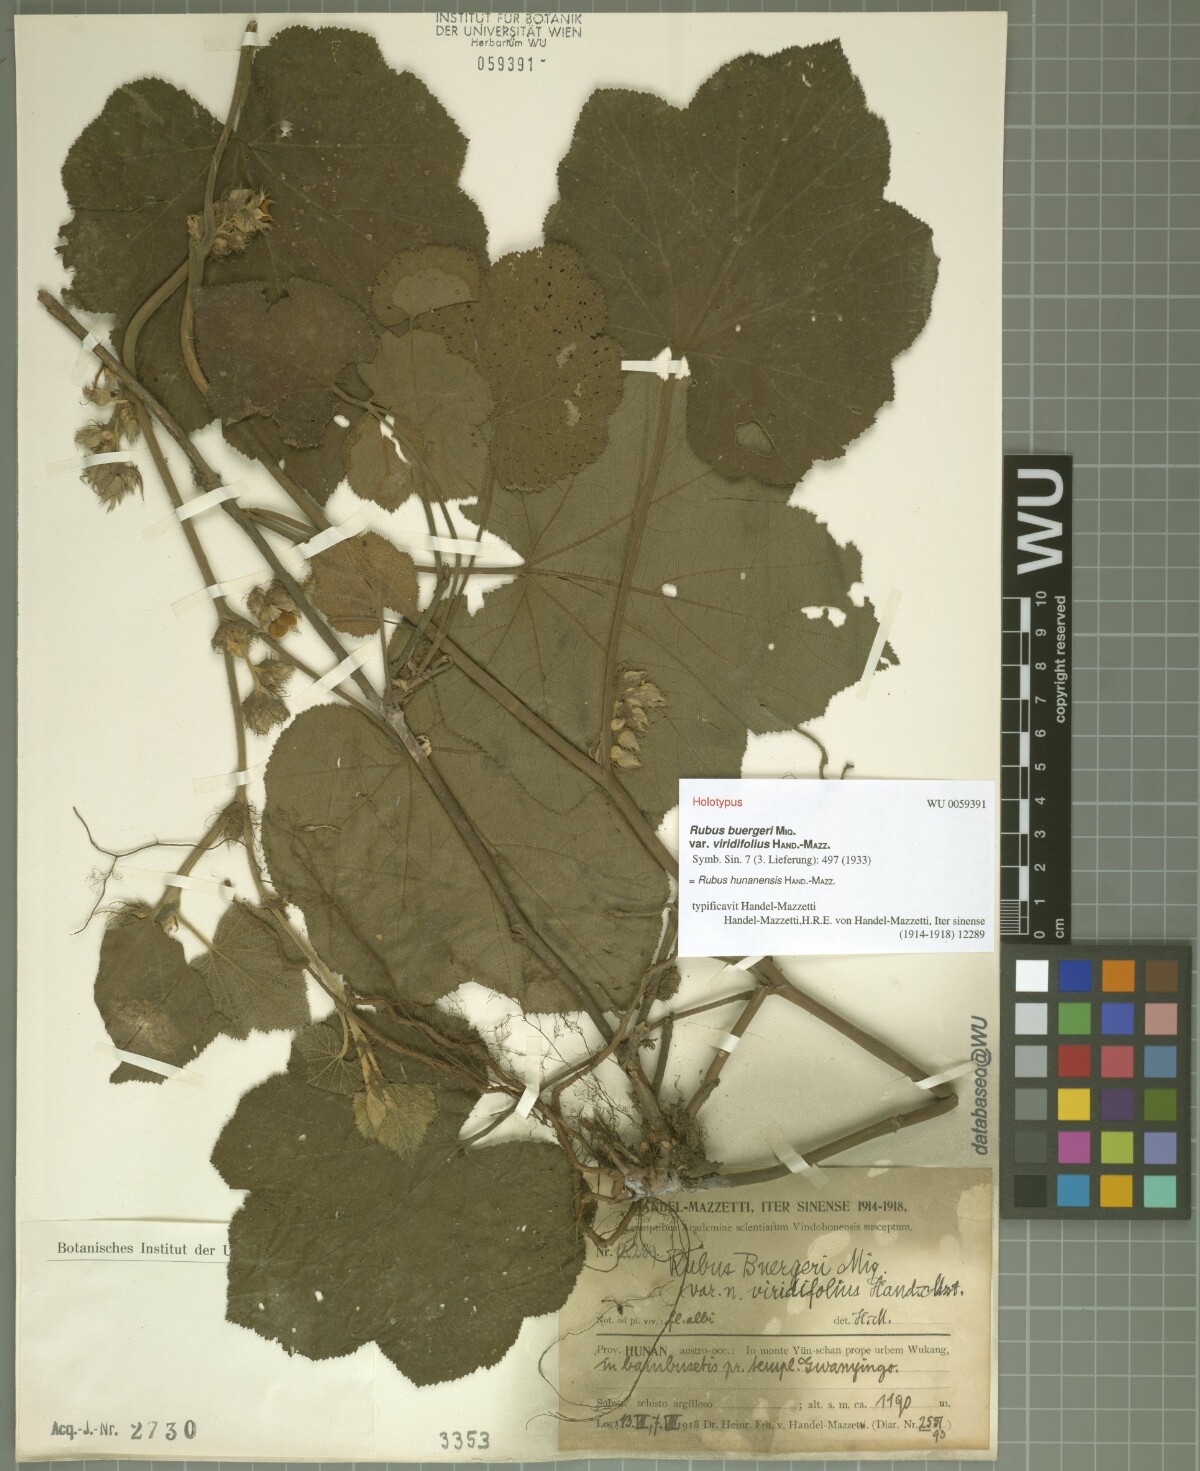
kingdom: Plantae
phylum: Tracheophyta
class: Magnoliopsida
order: Rosales
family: Rosaceae
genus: Rubus
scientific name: Rubus neohunanensis
